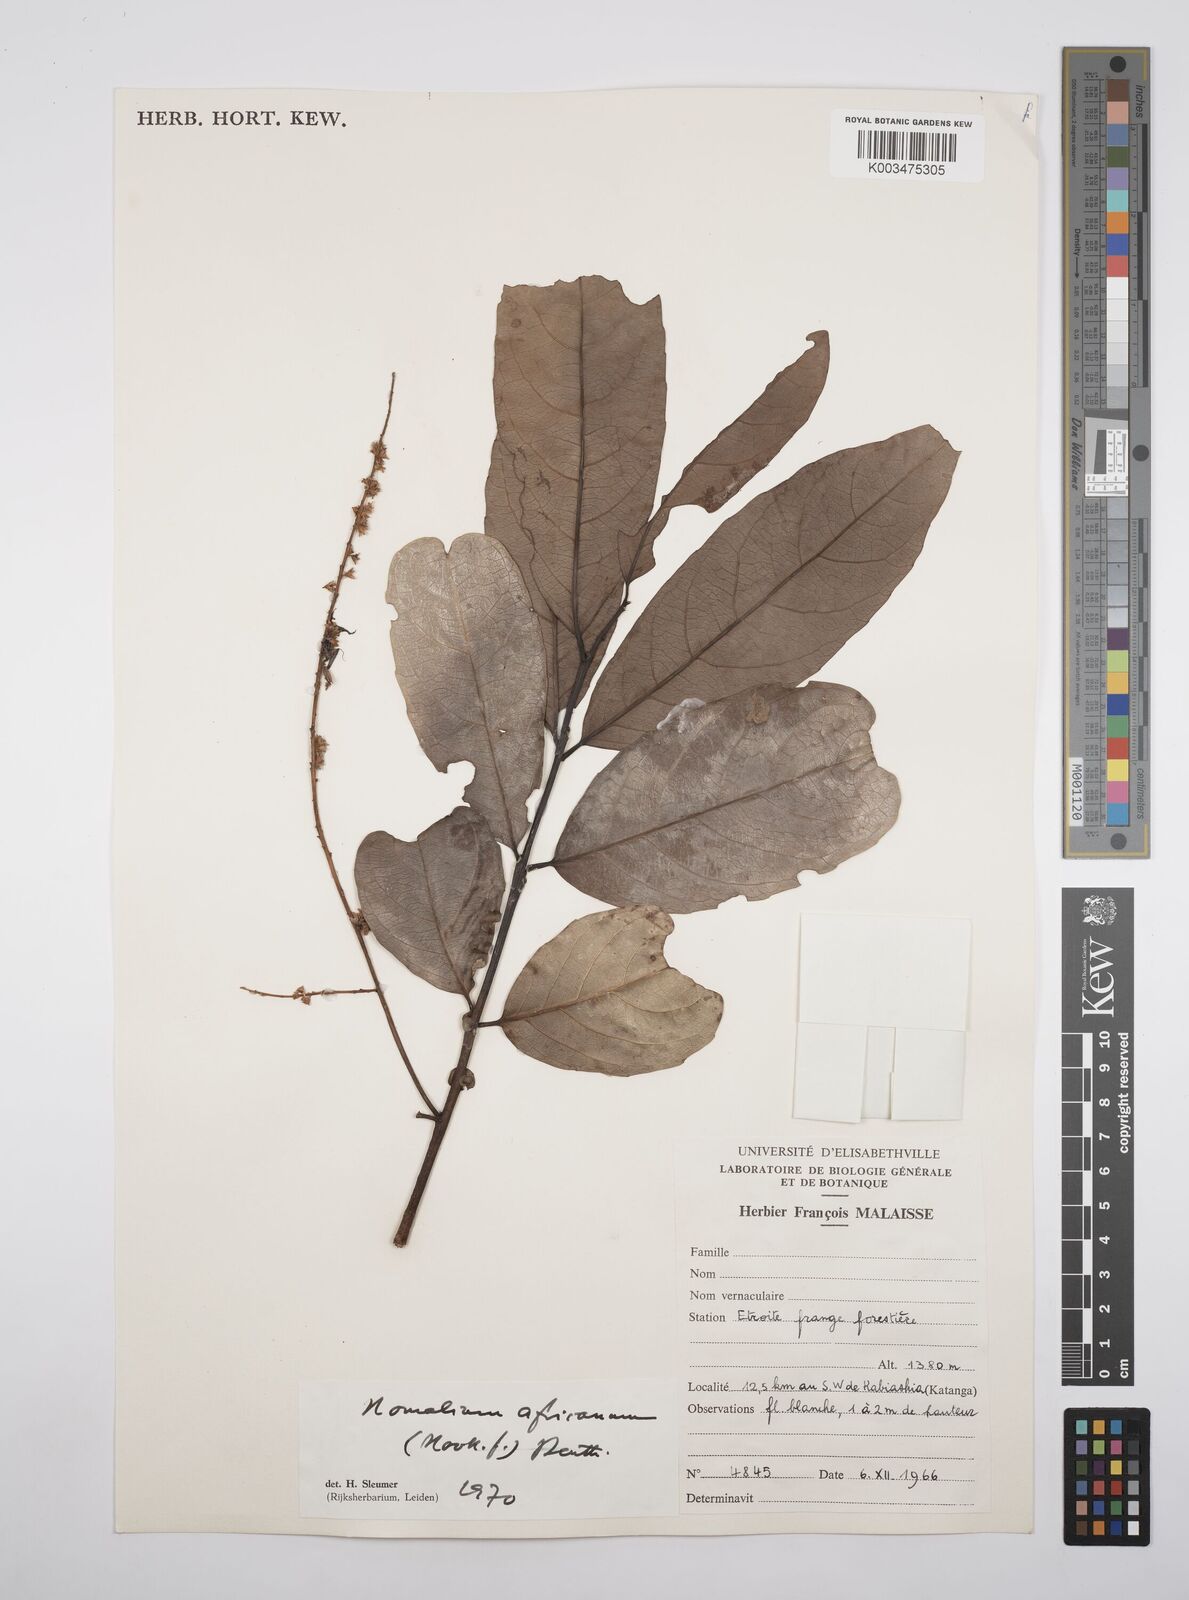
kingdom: Plantae
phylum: Tracheophyta
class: Magnoliopsida
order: Malpighiales
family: Salicaceae
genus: Homalium
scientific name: Homalium africanum
